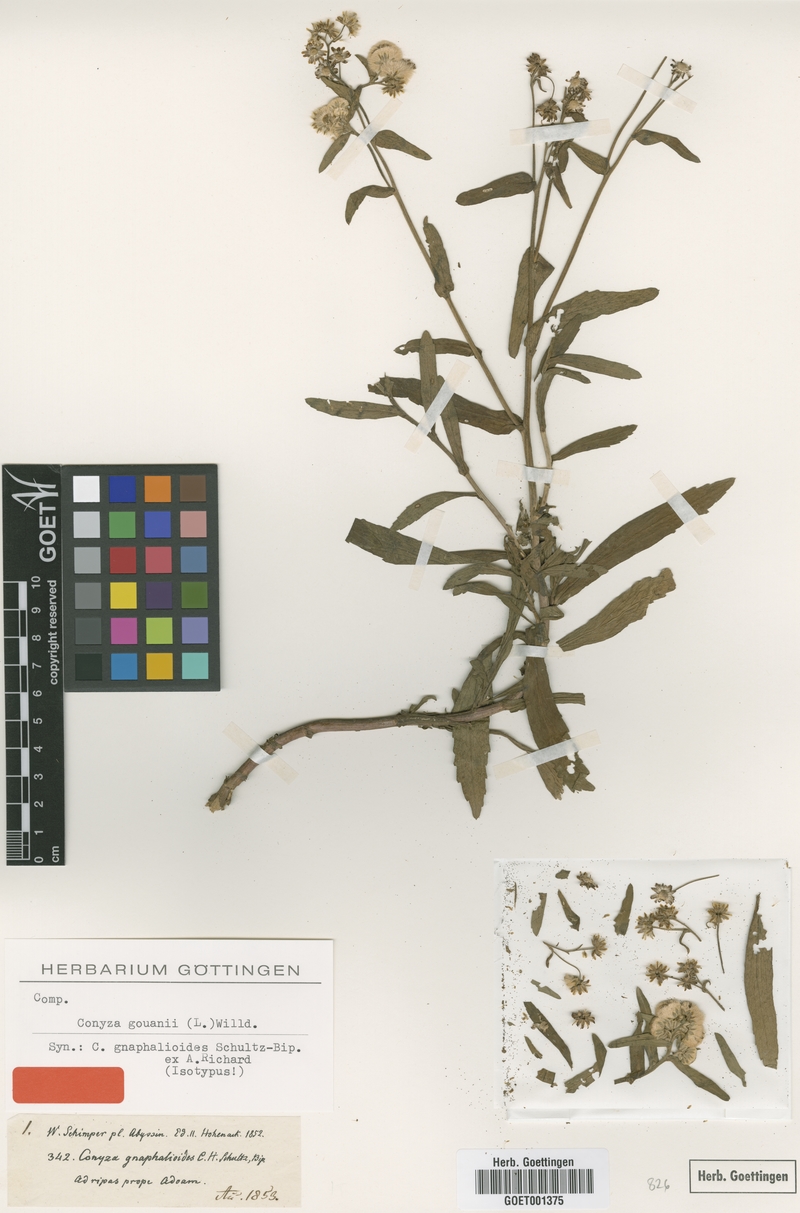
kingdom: Plantae
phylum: Tracheophyta
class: Magnoliopsida
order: Asterales
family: Asteraceae
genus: Eschenbachia
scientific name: Eschenbachia gouanii
